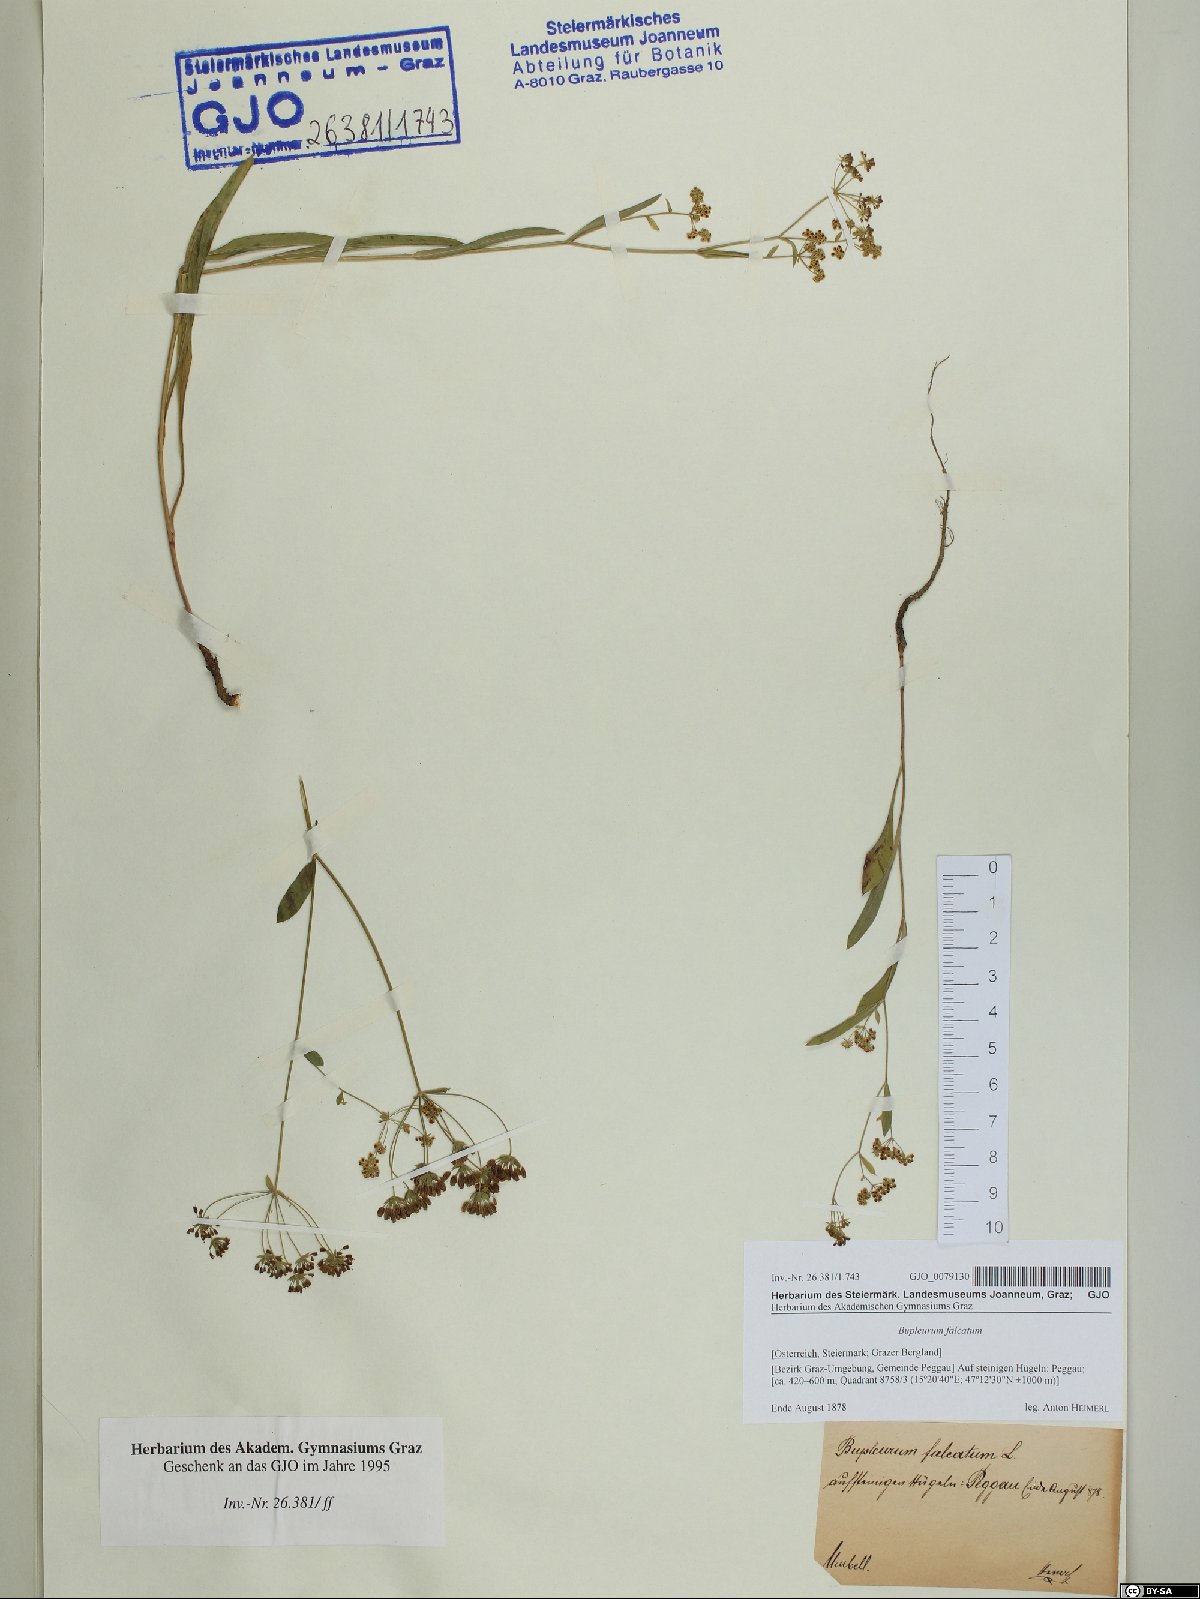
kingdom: Plantae
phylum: Tracheophyta
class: Magnoliopsida
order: Apiales
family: Apiaceae
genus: Bupleurum
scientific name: Bupleurum falcatum
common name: Sickle-leaved hare's-ear
